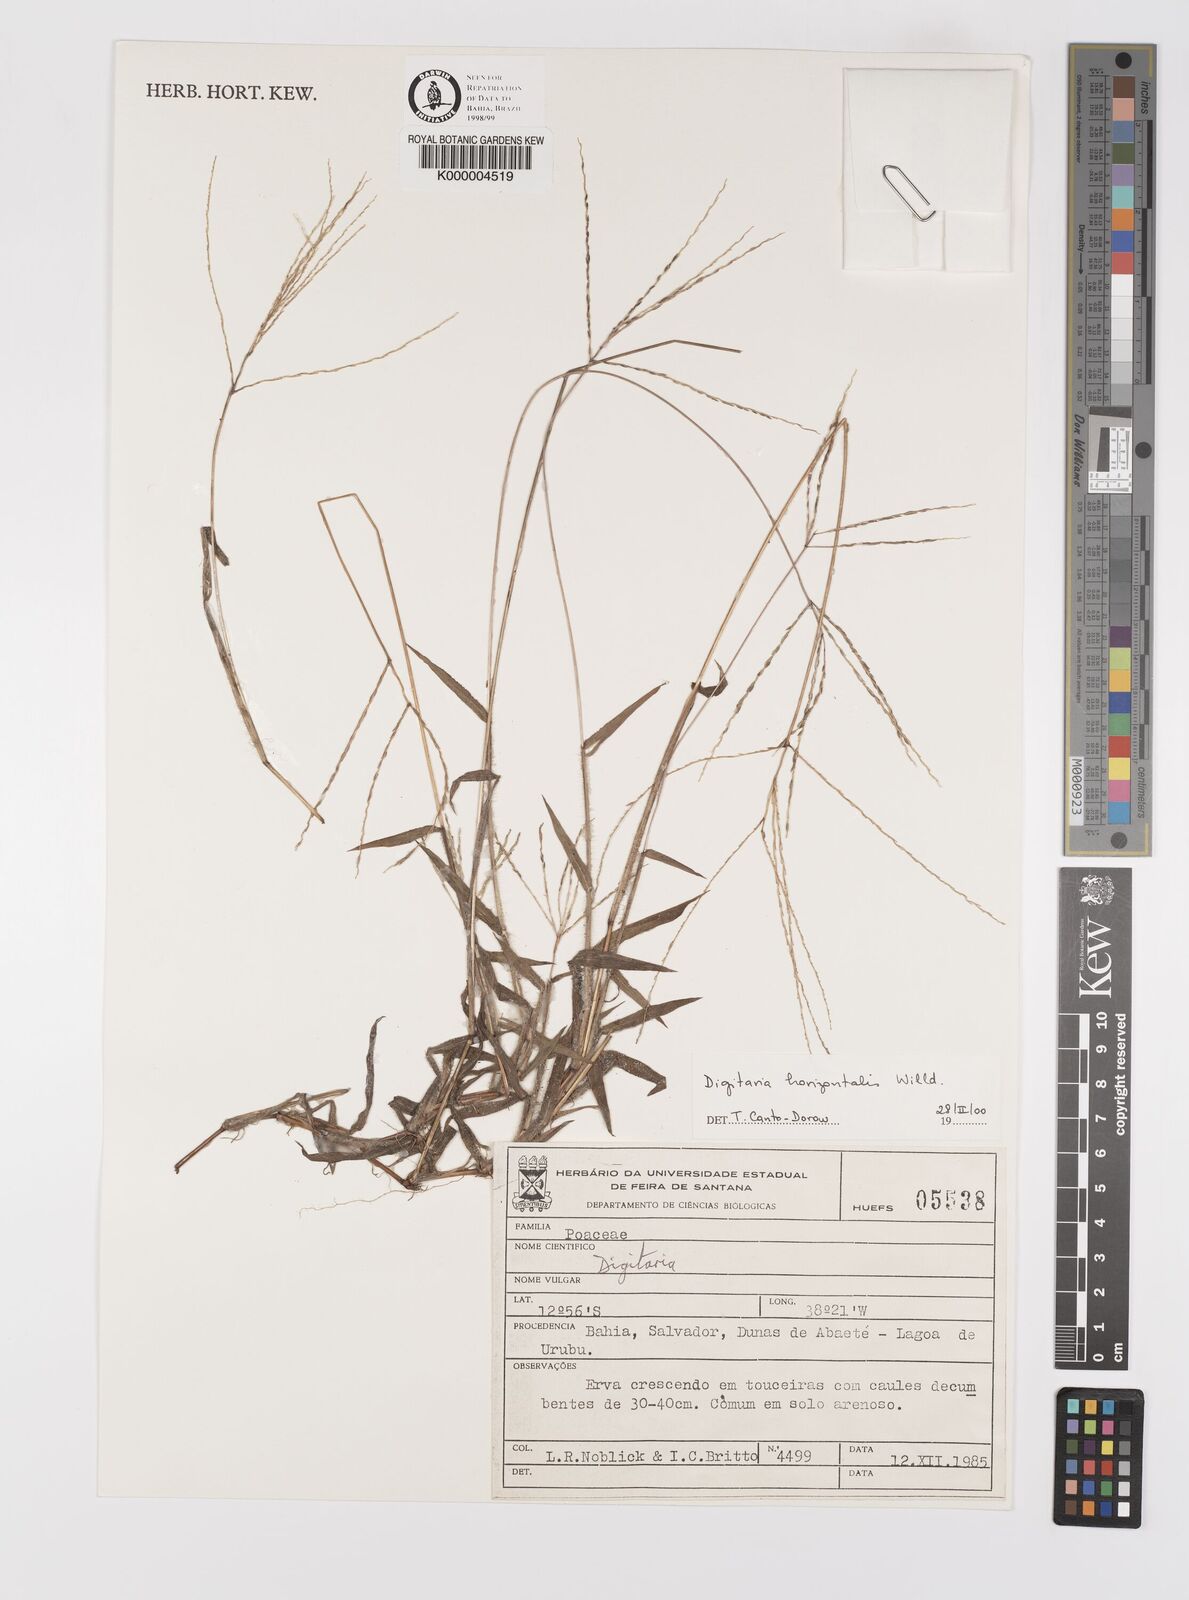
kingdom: Plantae
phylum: Tracheophyta
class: Liliopsida
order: Poales
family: Poaceae
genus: Digitaria
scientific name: Digitaria horizontalis
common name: Jamaican crabgrass
